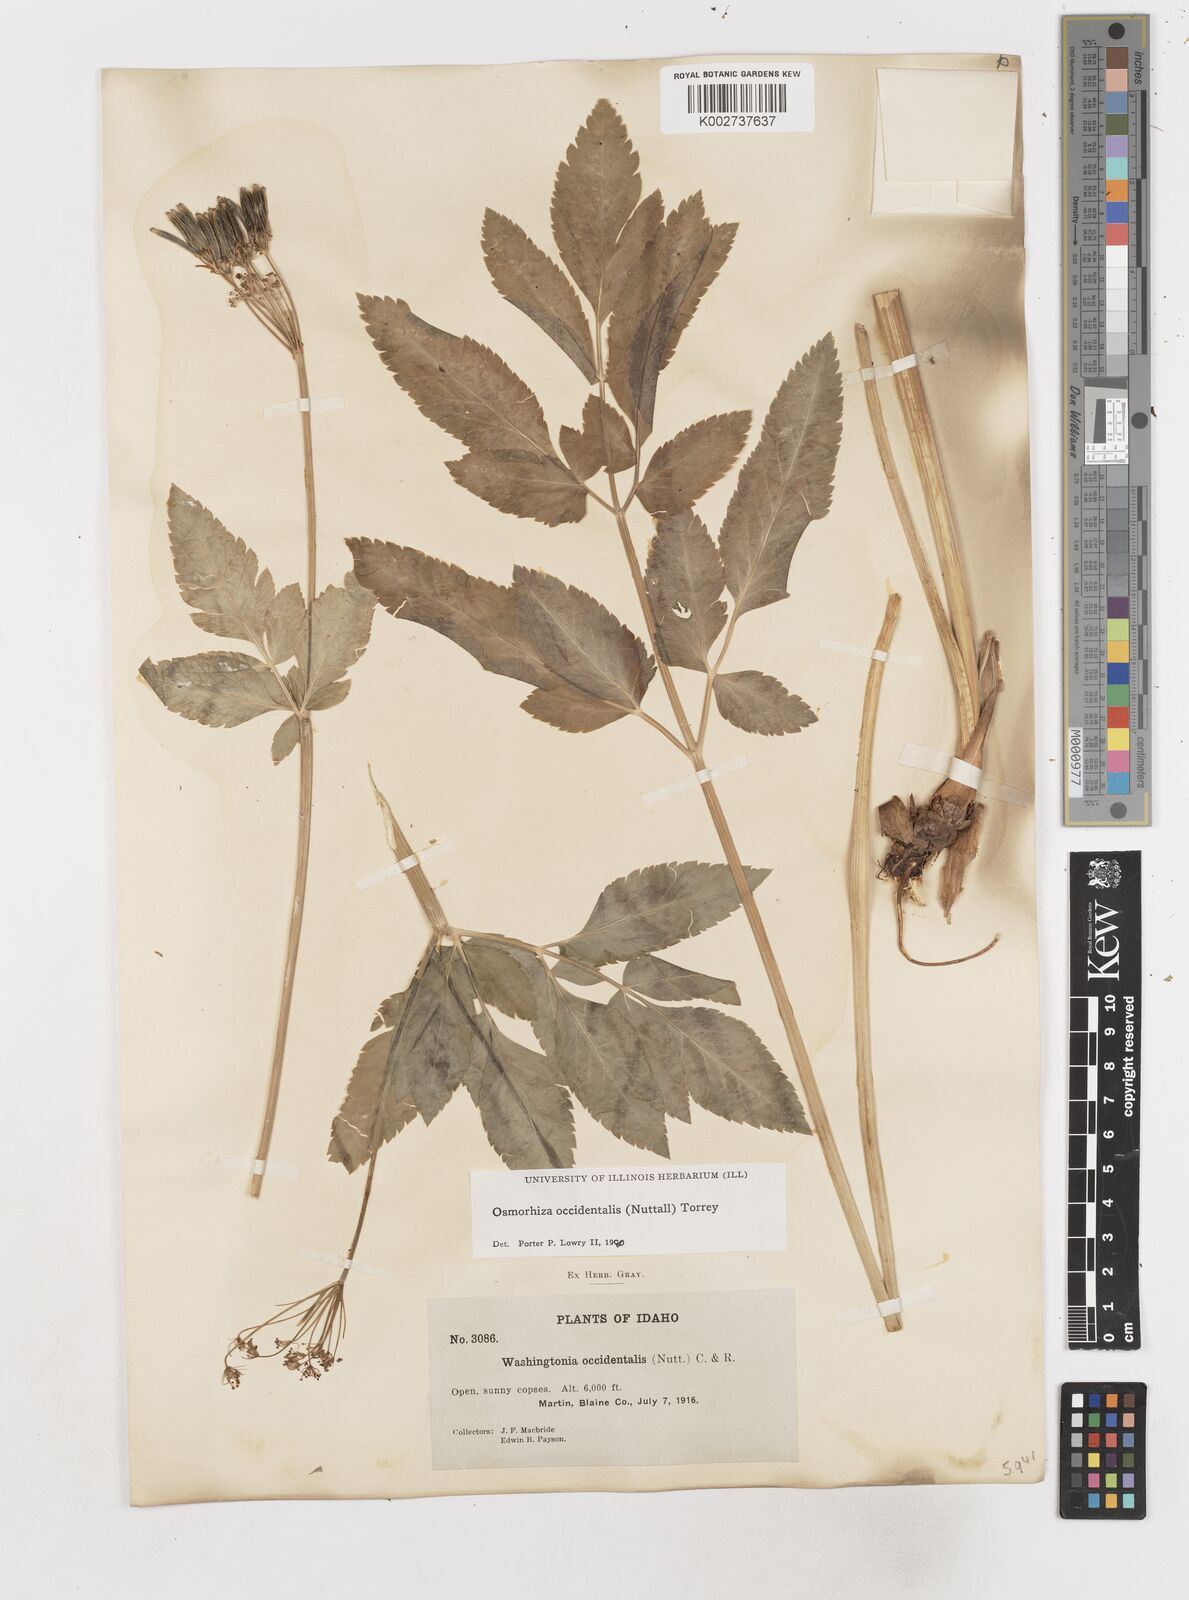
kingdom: Plantae
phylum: Tracheophyta
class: Magnoliopsida
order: Apiales
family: Apiaceae
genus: Osmorhiza
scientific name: Osmorhiza occidentalis
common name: Western sweet cicely
